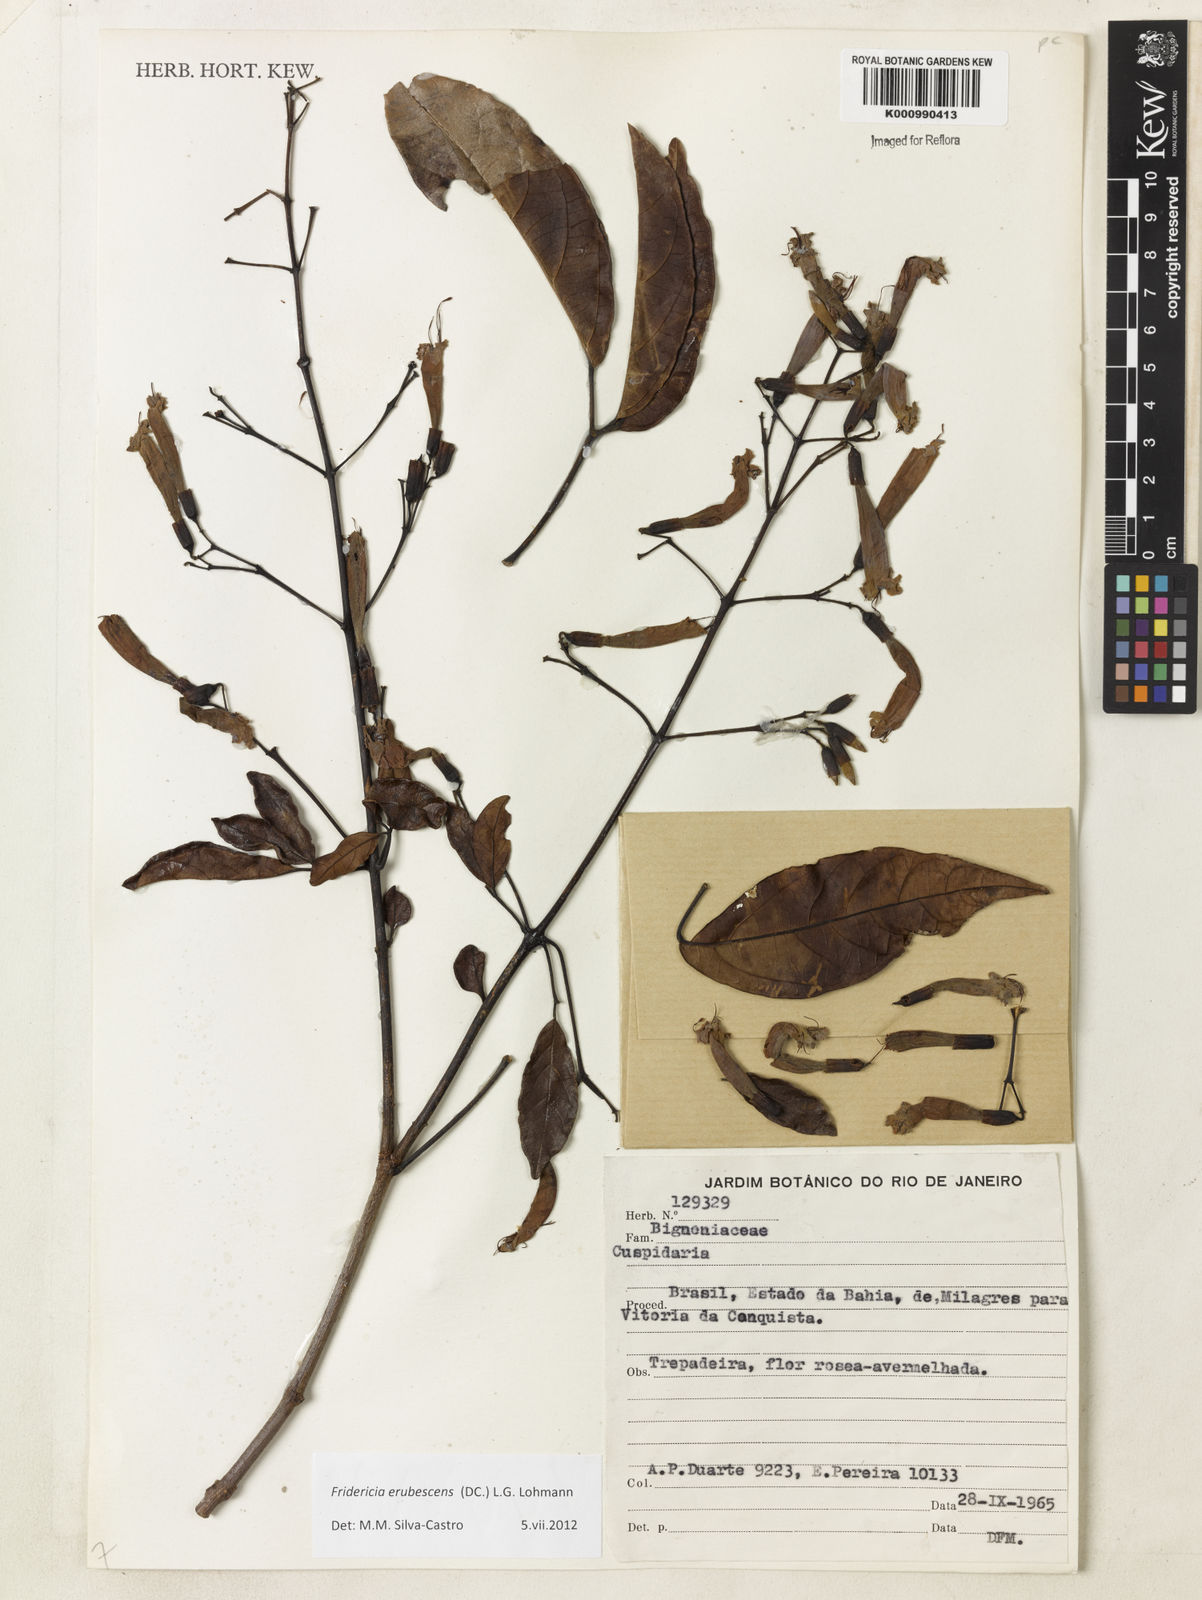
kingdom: Plantae
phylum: Tracheophyta
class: Magnoliopsida
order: Lamiales
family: Bignoniaceae
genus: Fridericia
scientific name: Fridericia erubescens
